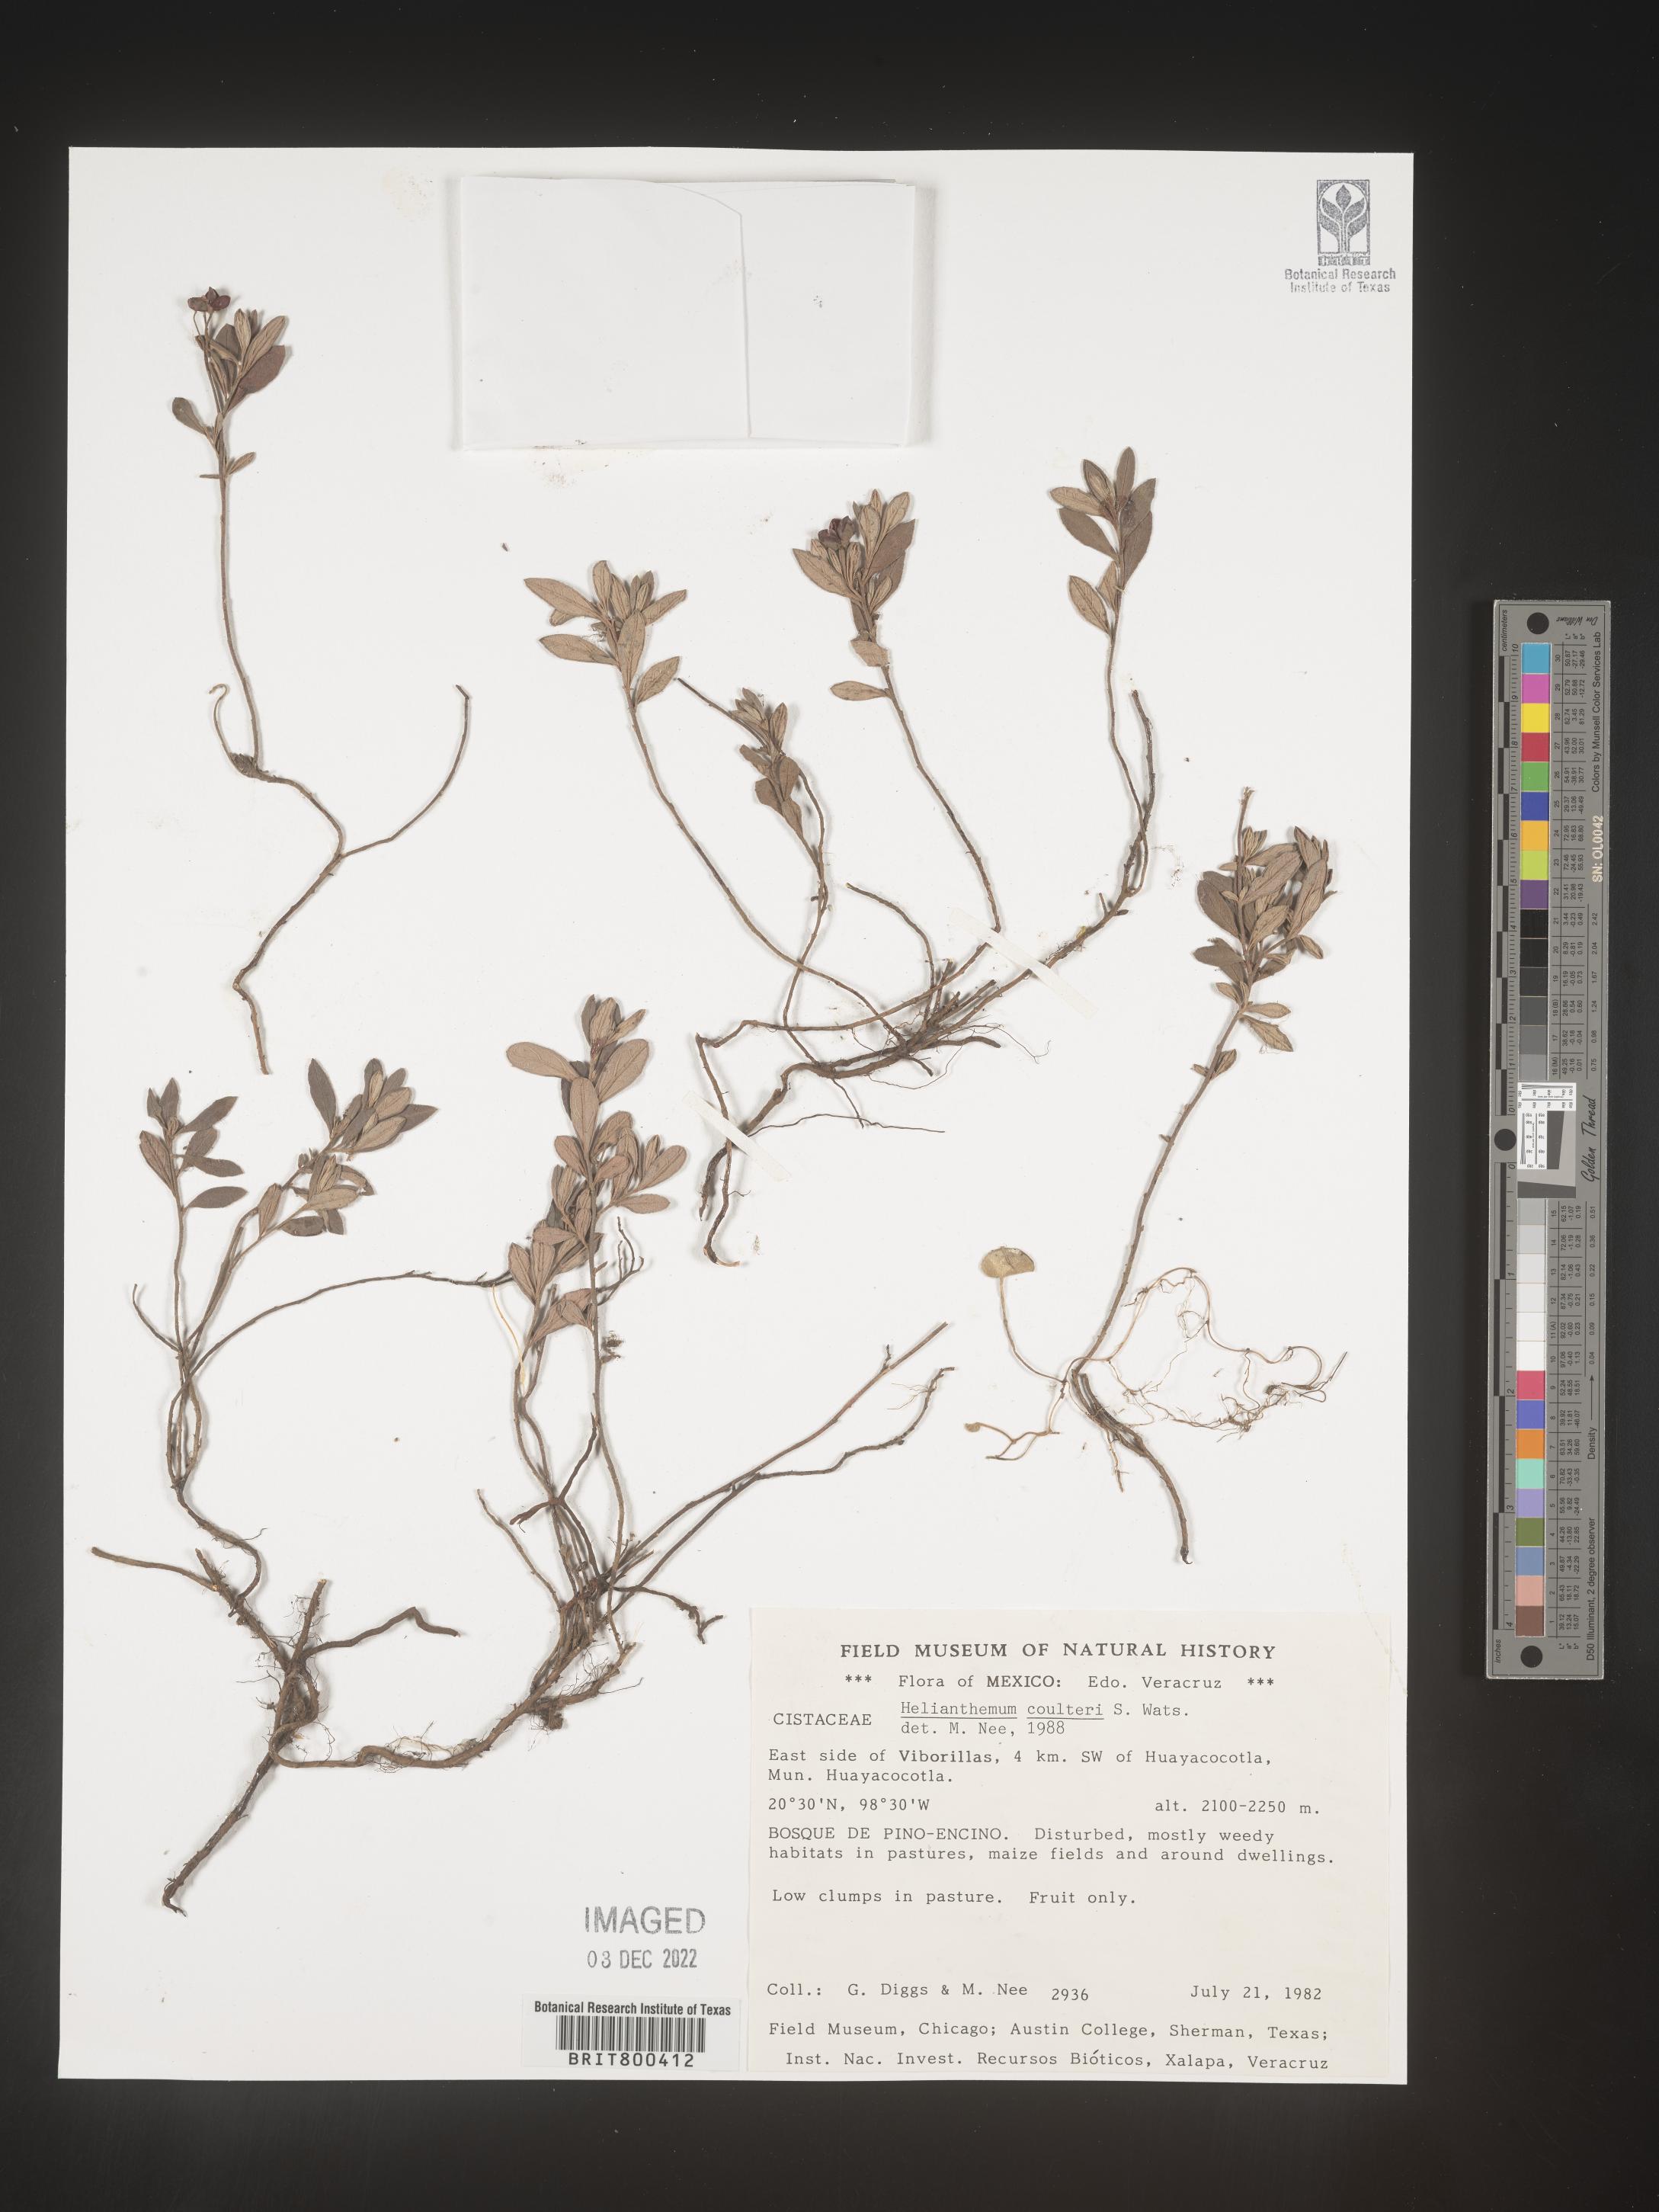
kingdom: Plantae
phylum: Tracheophyta
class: Magnoliopsida
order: Malvales
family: Cistaceae
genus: Helianthemum
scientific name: Helianthemum
